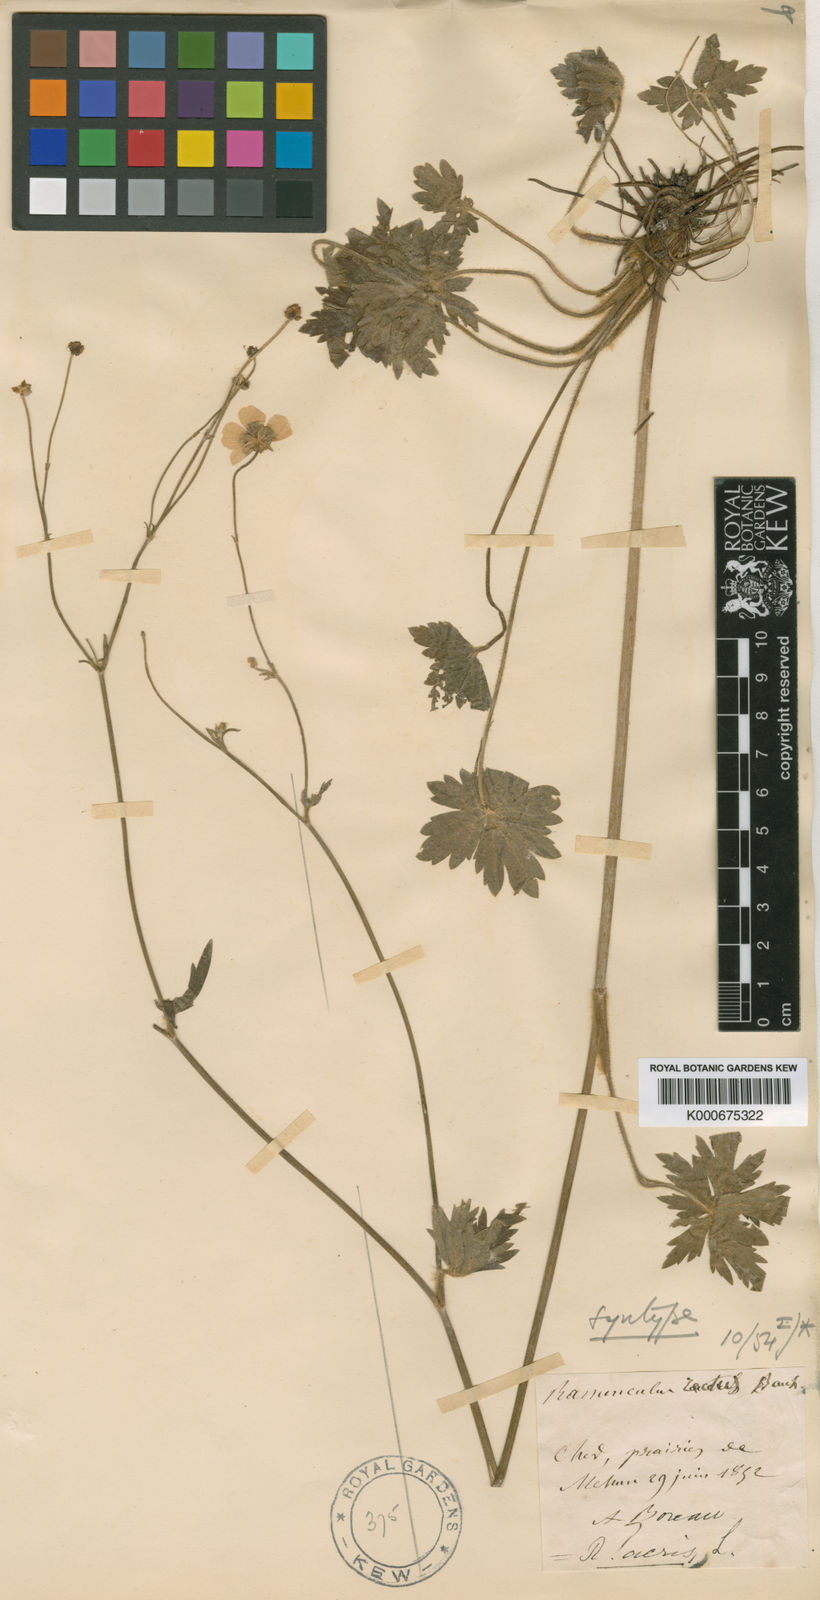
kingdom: Plantae
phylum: Tracheophyta
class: Magnoliopsida
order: Ranunculales
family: Ranunculaceae
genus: Ranunculus
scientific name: Ranunculus acris
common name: Meadow buttercup
